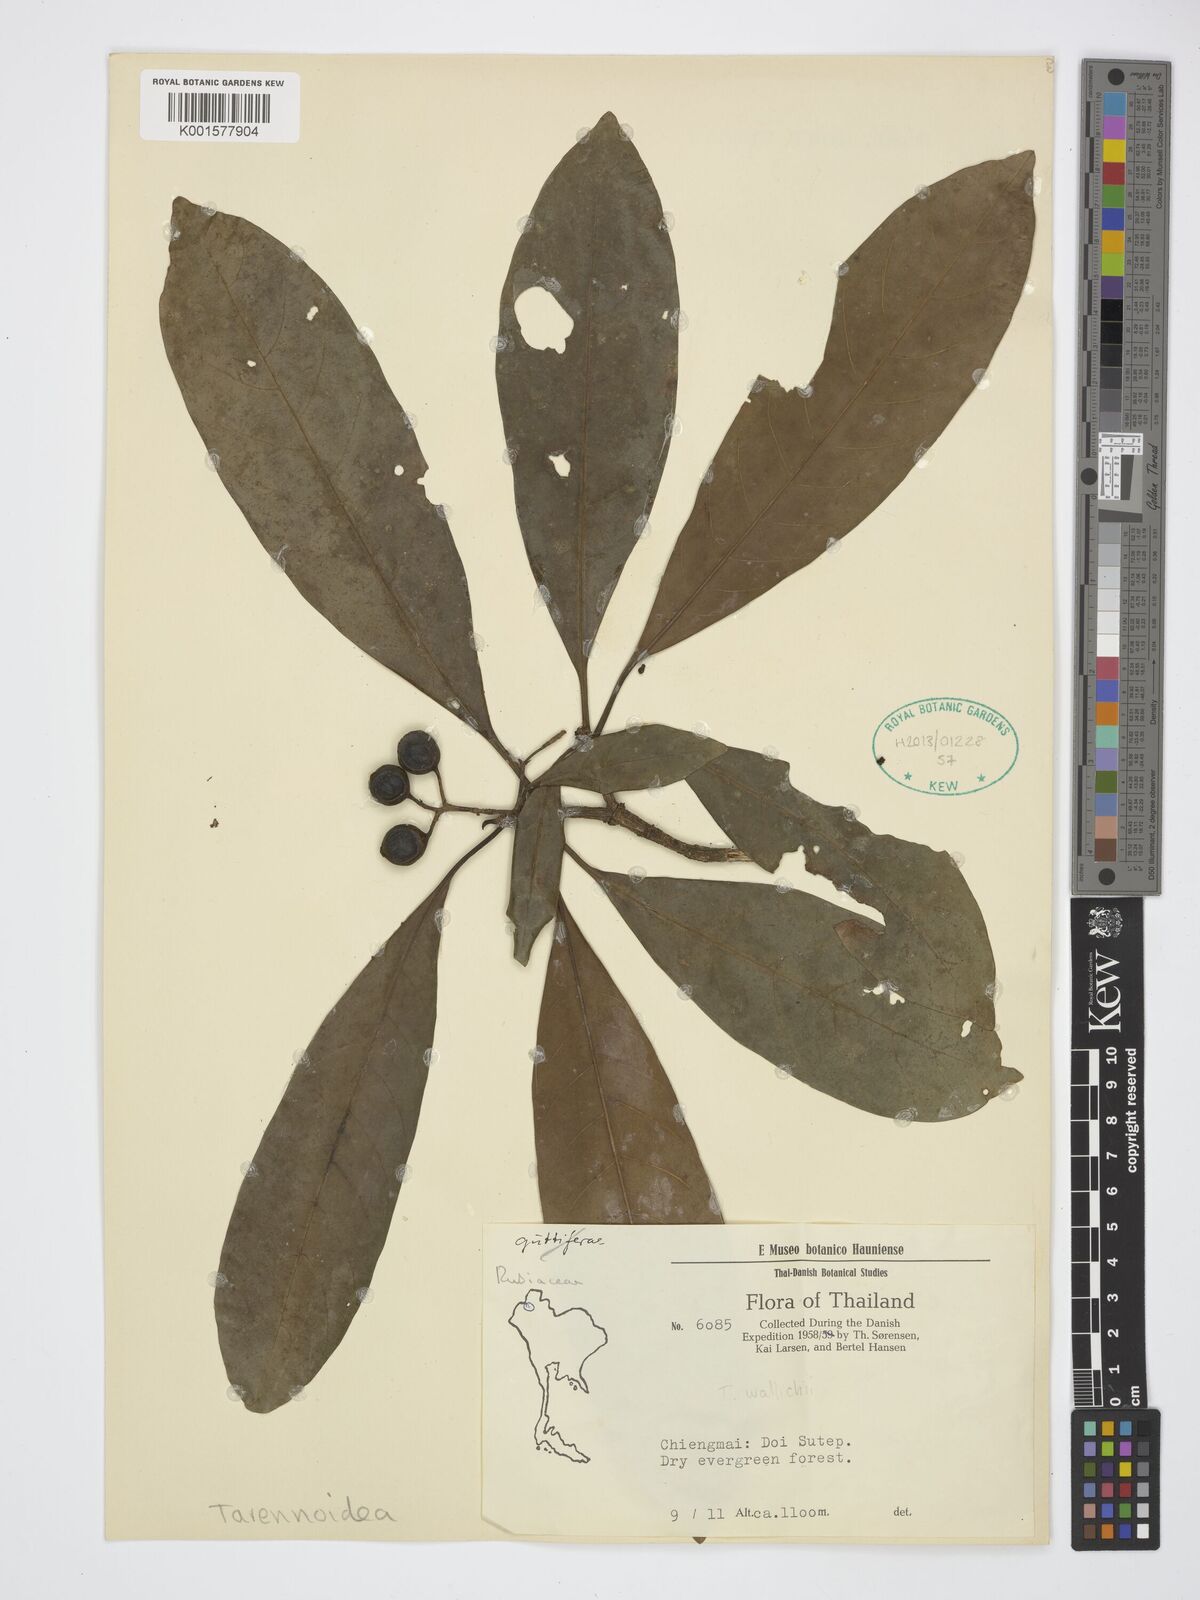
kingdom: Plantae
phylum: Tracheophyta
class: Magnoliopsida
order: Gentianales
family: Rubiaceae
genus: Tarennoidea
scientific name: Tarennoidea
